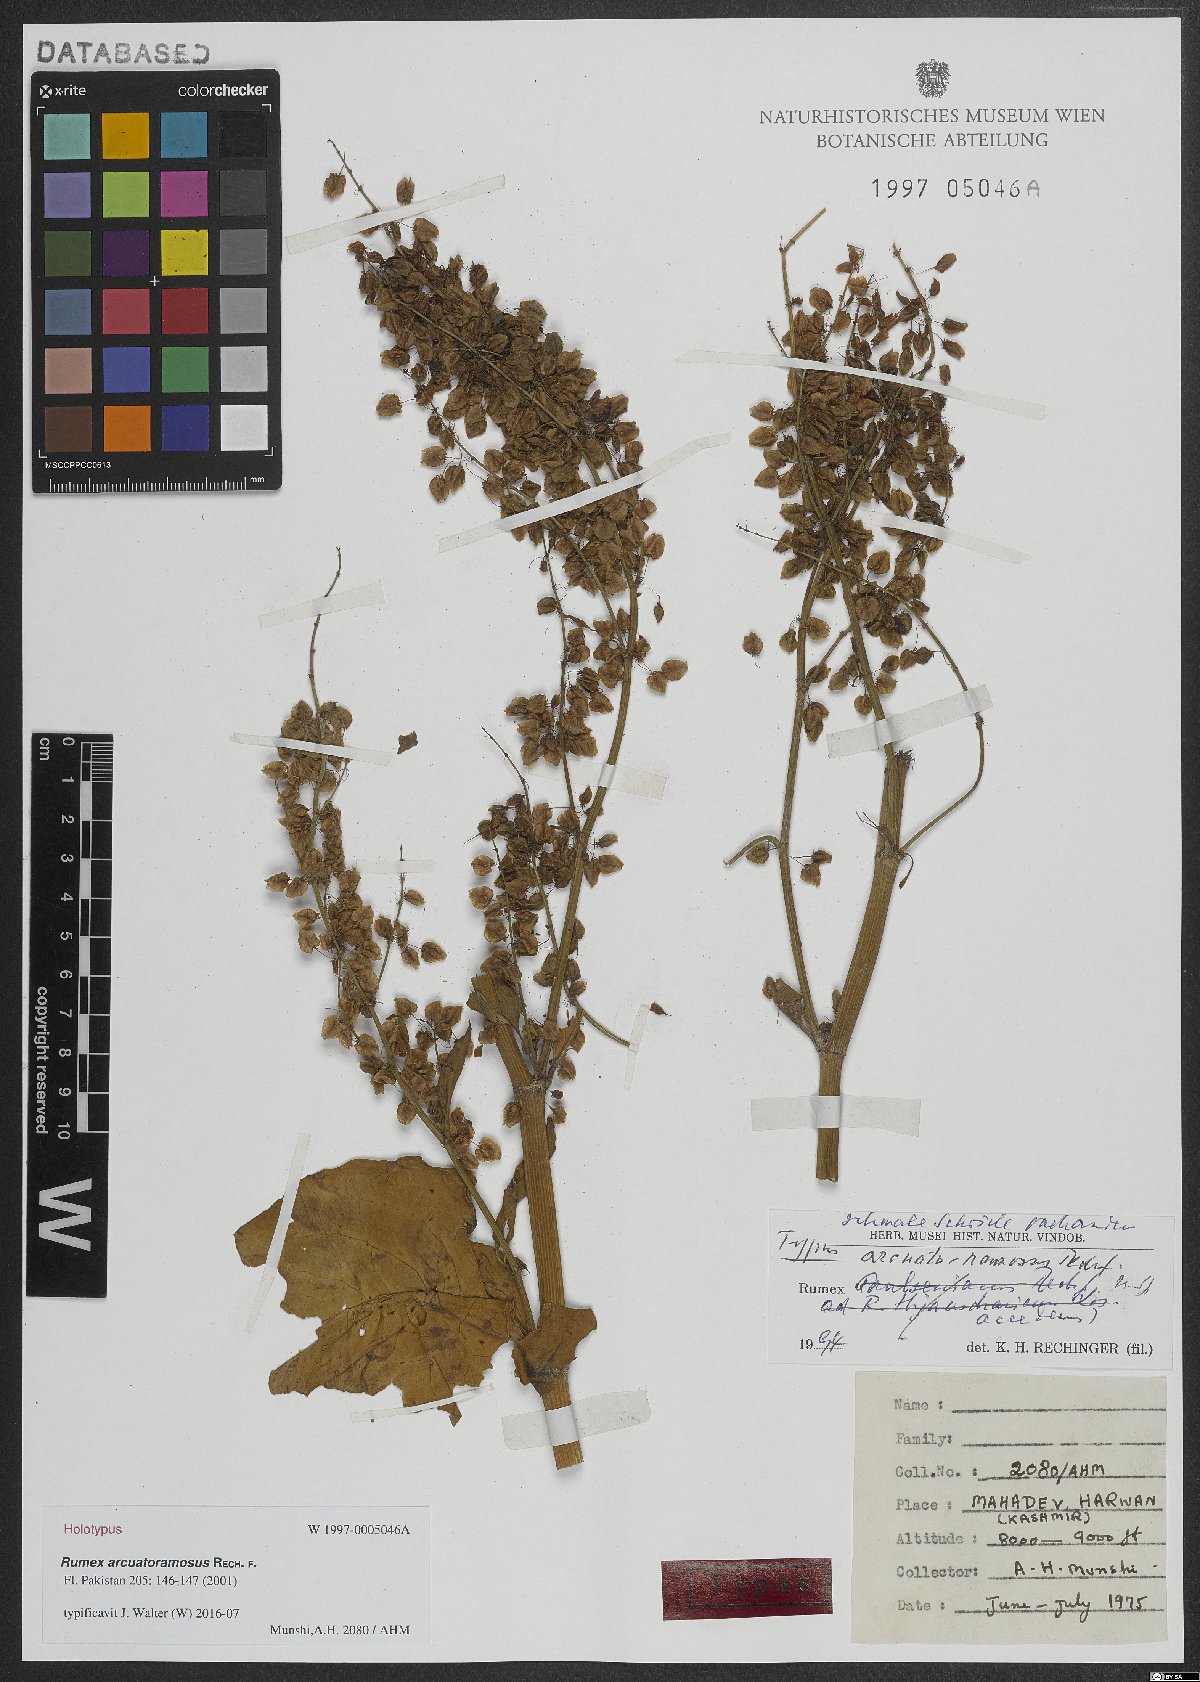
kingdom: Plantae
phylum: Tracheophyta
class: Magnoliopsida
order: Caryophyllales
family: Polygonaceae
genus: Rumex
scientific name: Rumex arcuatoramosus
